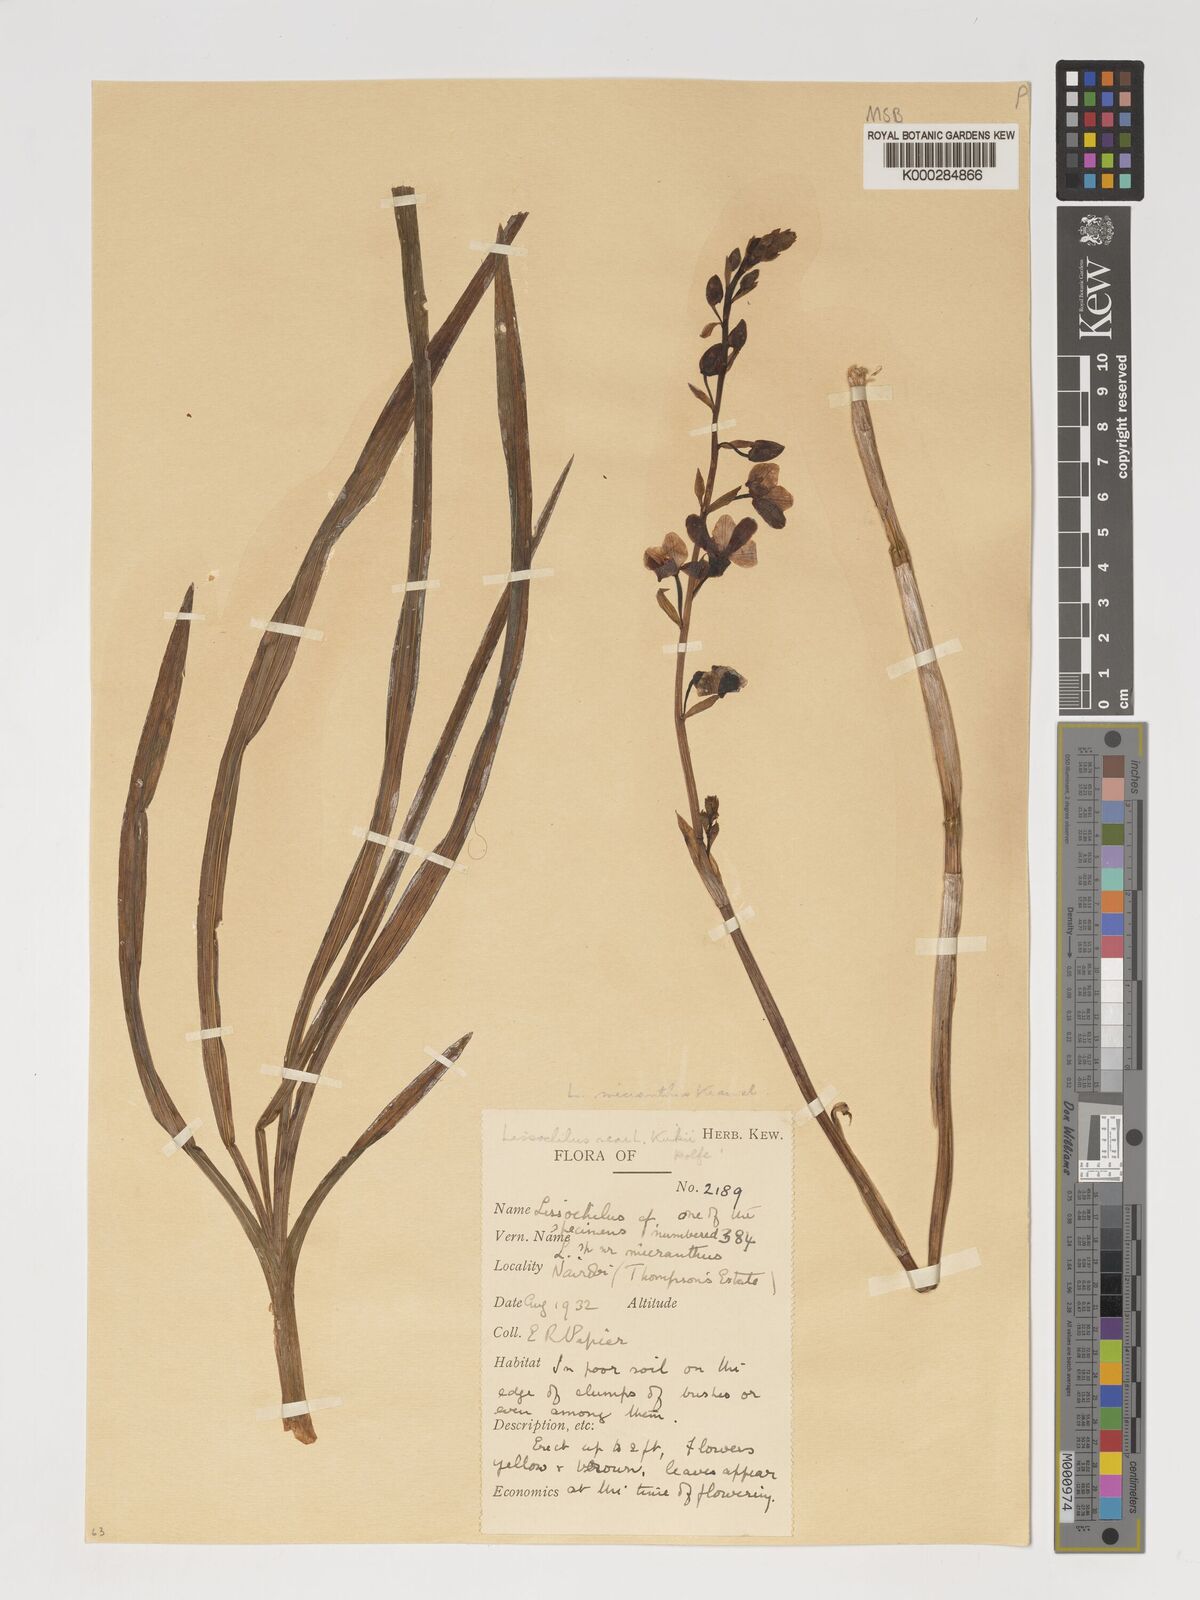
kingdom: Plantae
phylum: Tracheophyta
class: Liliopsida
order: Asparagales
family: Orchidaceae
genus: Eulophia
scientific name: Eulophia streptopetala
